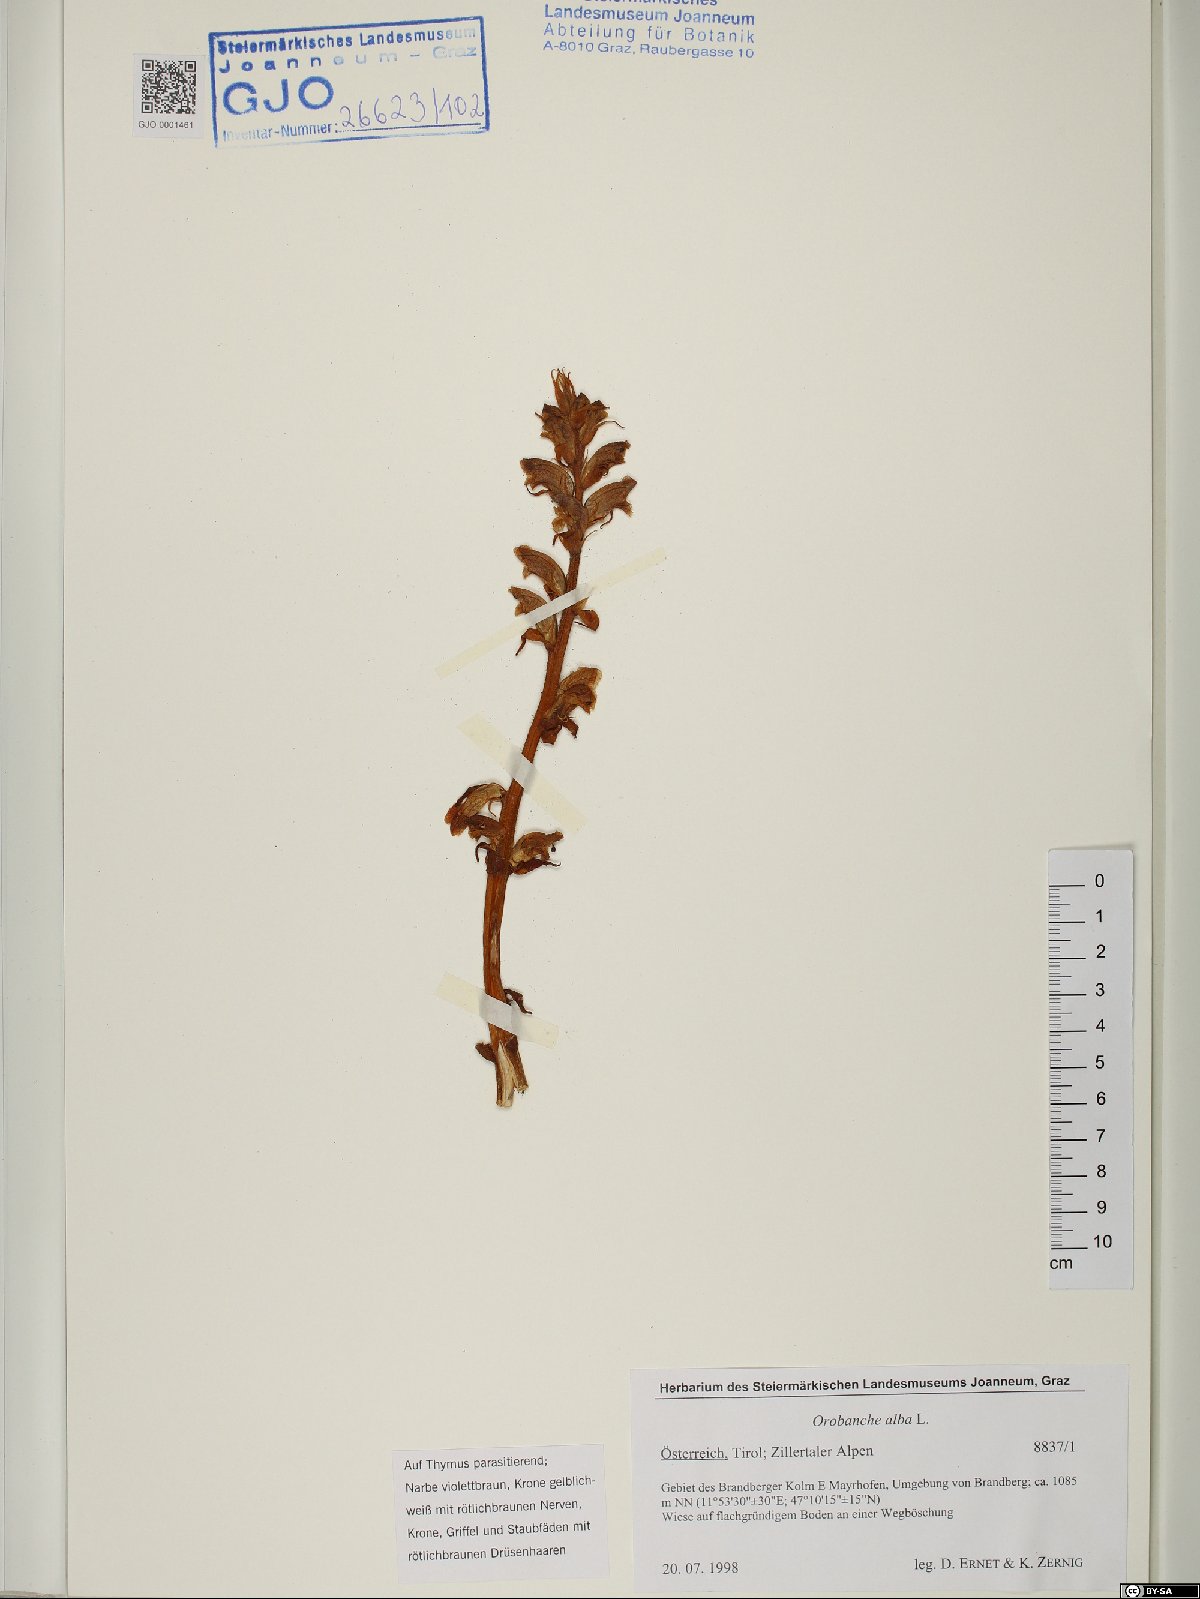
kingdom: Plantae
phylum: Tracheophyta
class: Magnoliopsida
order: Lamiales
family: Orobanchaceae
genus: Orobanche
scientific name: Orobanche alba
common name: Thyme broomrape
